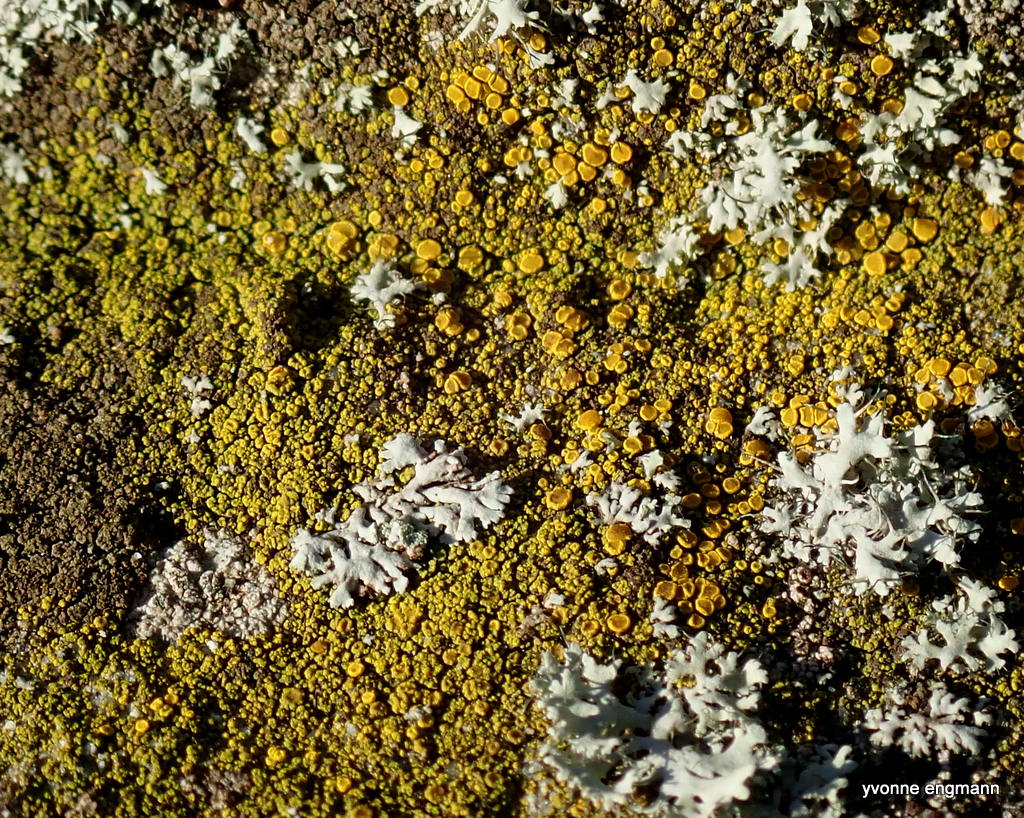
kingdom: Fungi
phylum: Ascomycota
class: Candelariomycetes
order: Candelariales
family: Candelariaceae
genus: Candelariella
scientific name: Candelariella vitellina
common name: almindelig æggeblommelav
